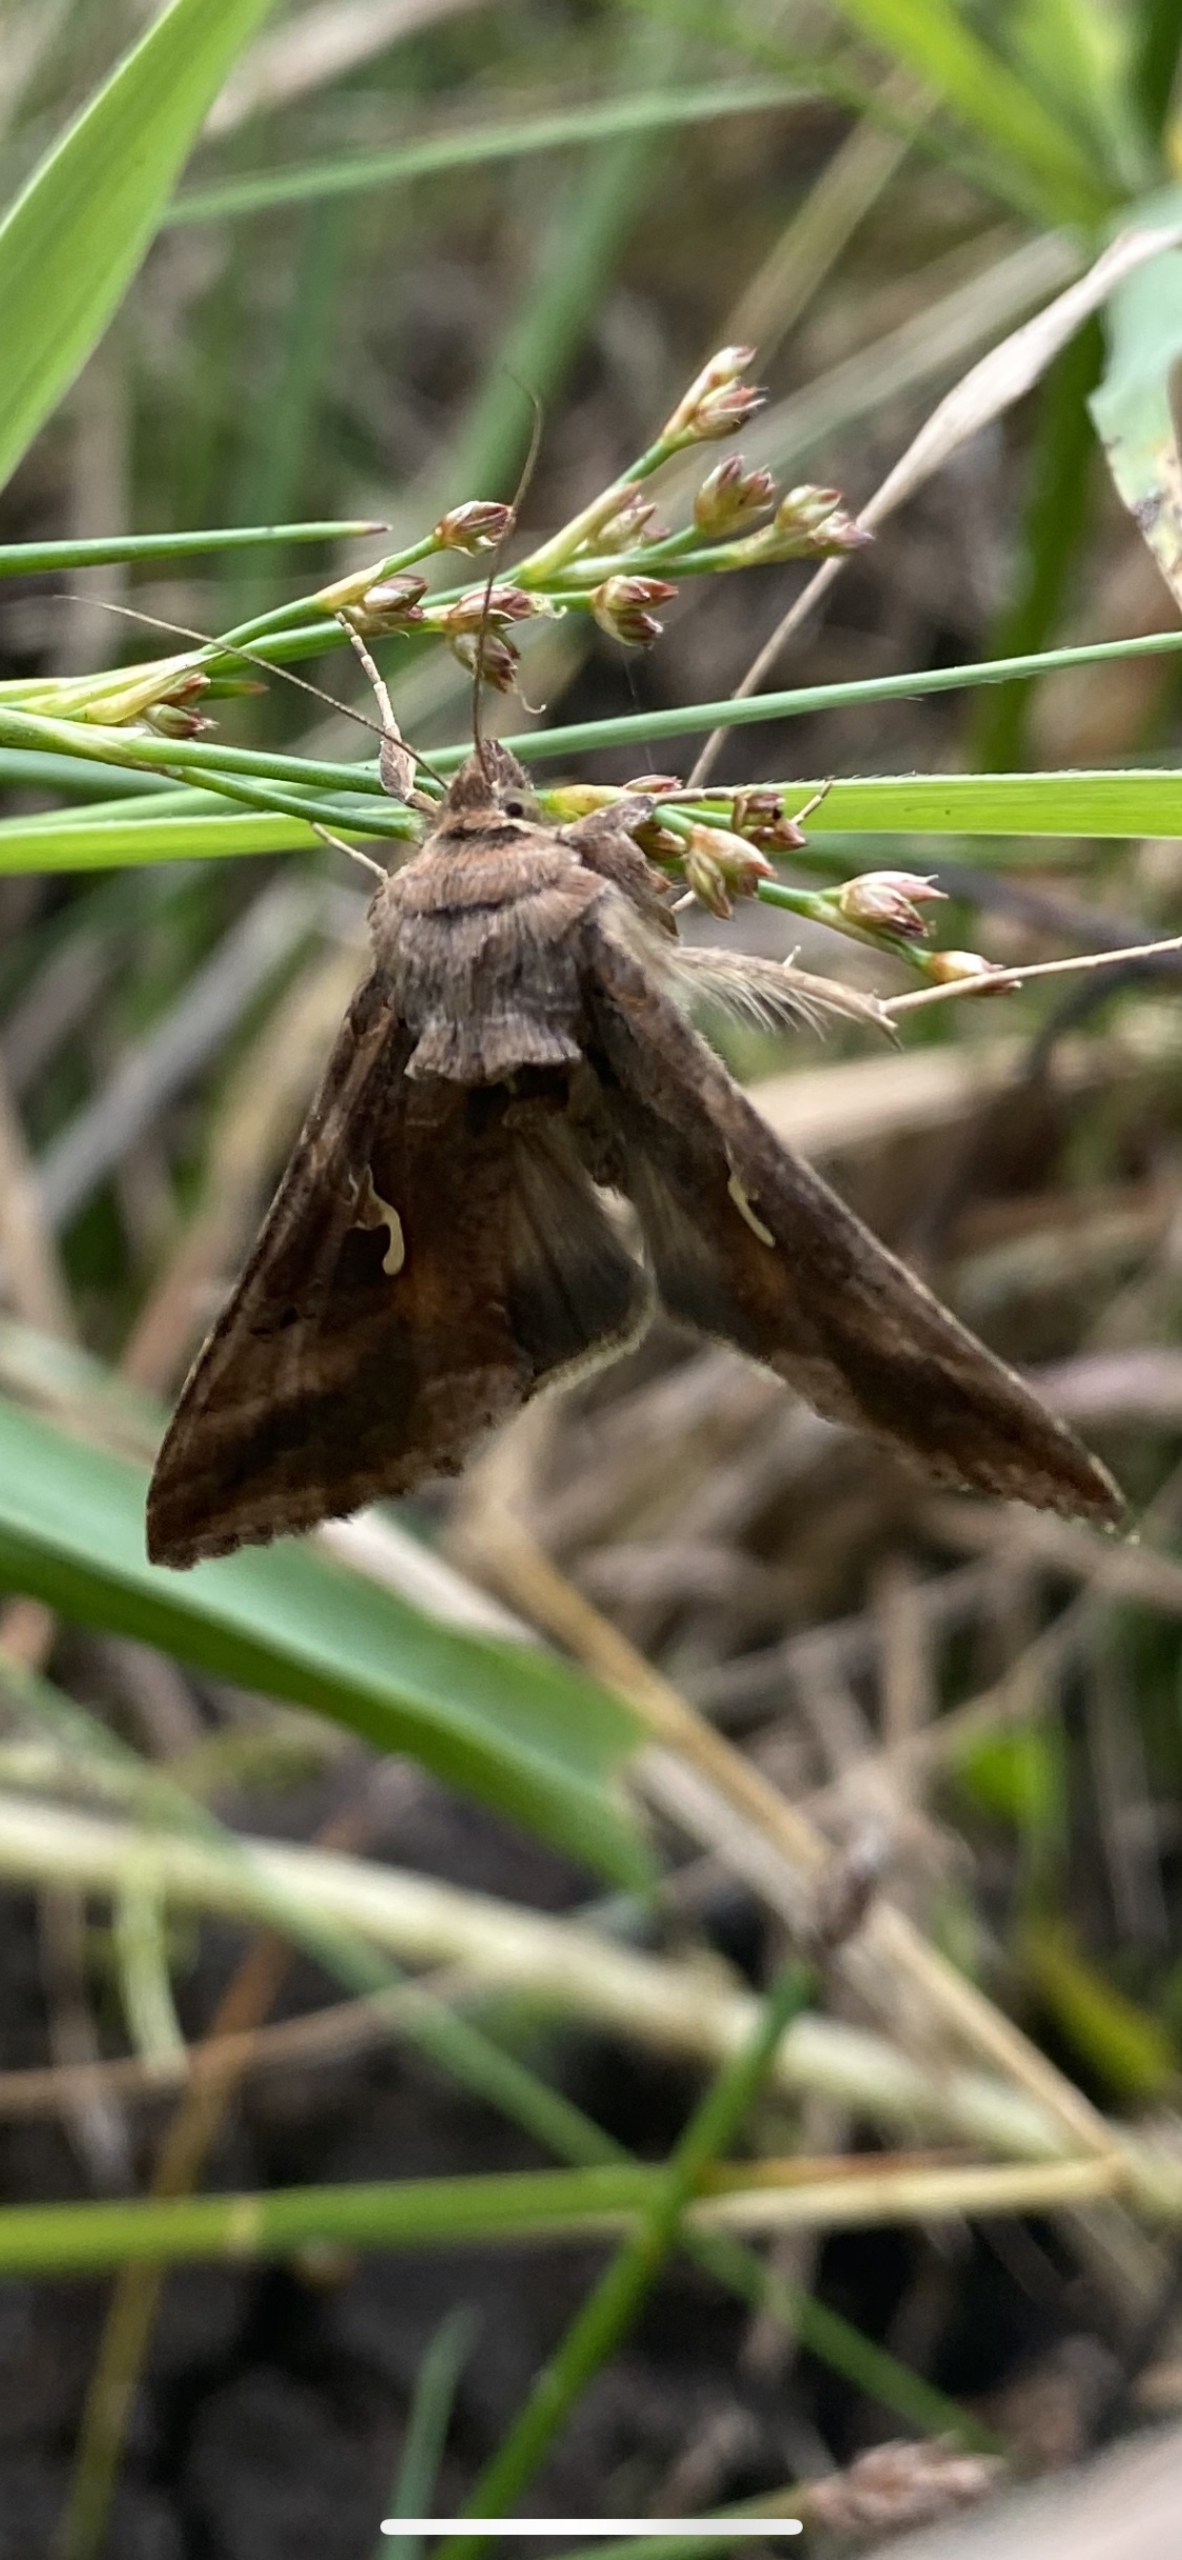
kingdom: Animalia
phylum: Arthropoda
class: Insecta
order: Lepidoptera
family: Noctuidae
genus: Autographa
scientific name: Autographa gamma
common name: Gammaugle
